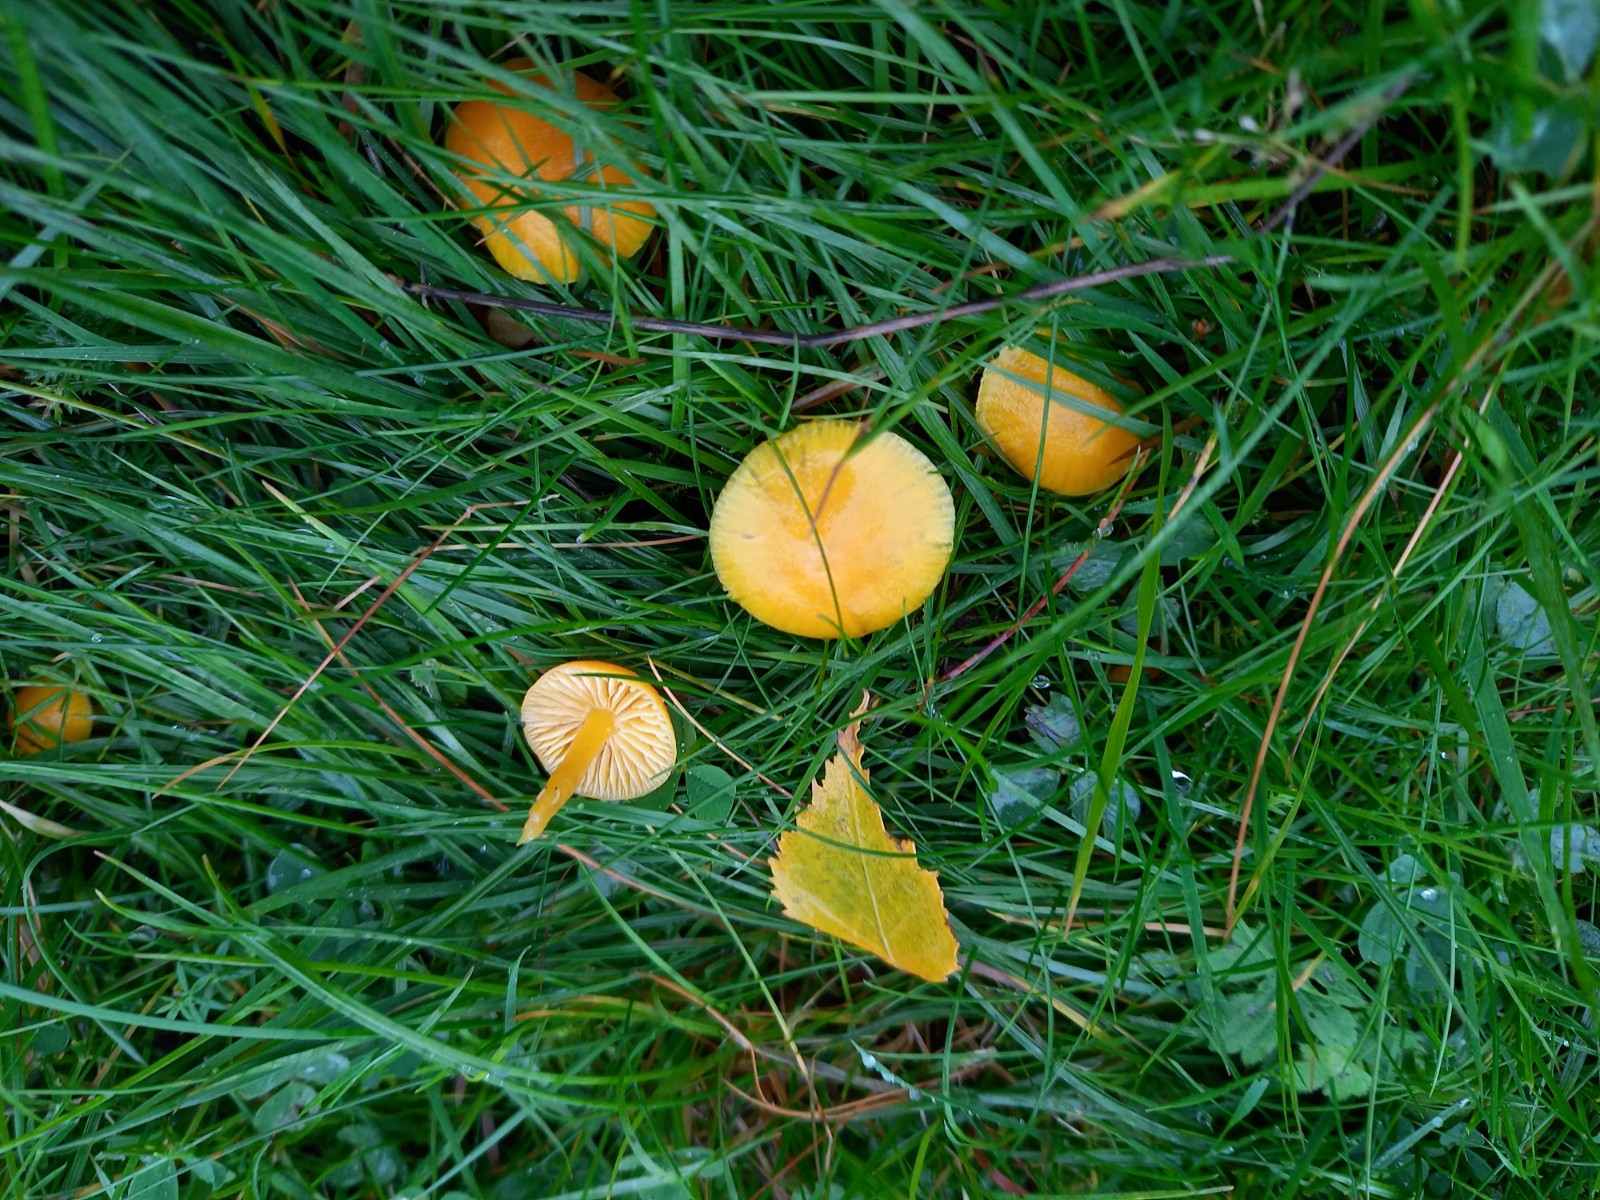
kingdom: Fungi
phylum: Basidiomycota
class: Agaricomycetes
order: Agaricales
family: Hygrophoraceae
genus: Hygrocybe
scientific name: Hygrocybe ceracea
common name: voksgul vokshat
